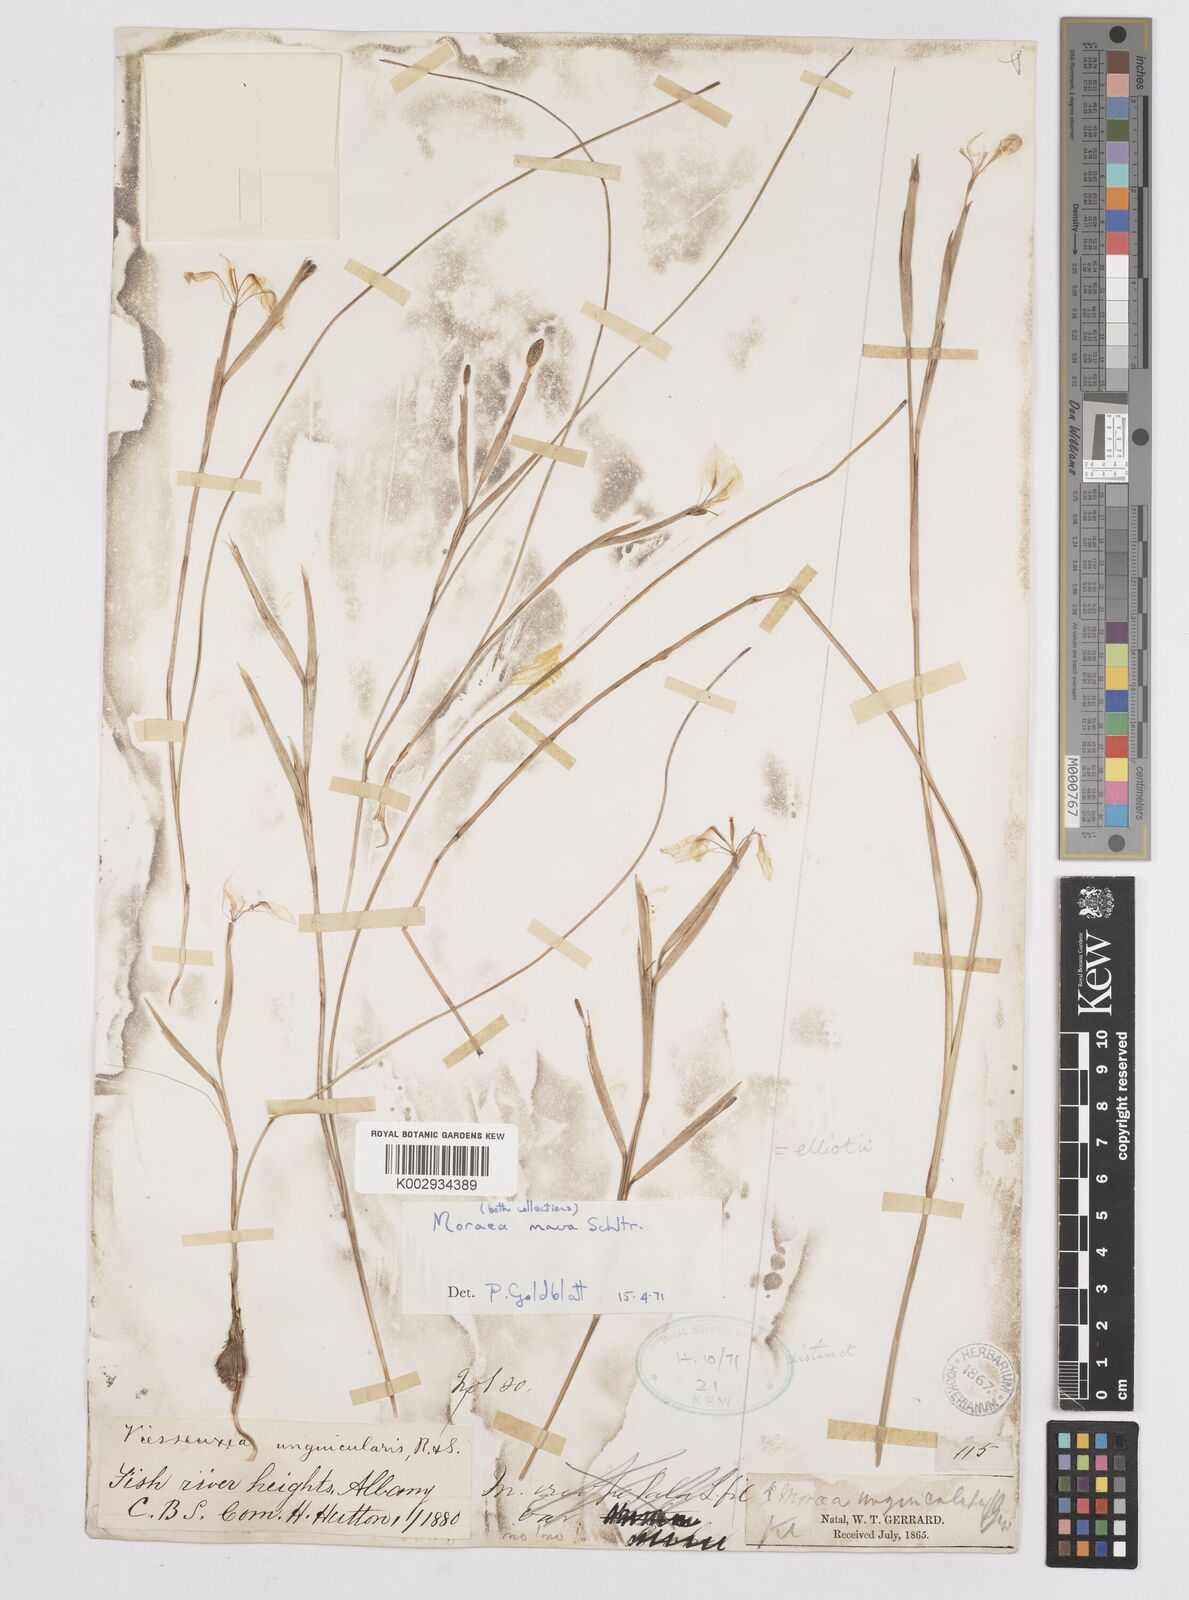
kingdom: Plantae
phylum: Tracheophyta
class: Liliopsida
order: Asparagales
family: Iridaceae
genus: Moraea
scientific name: Moraea elliotii
